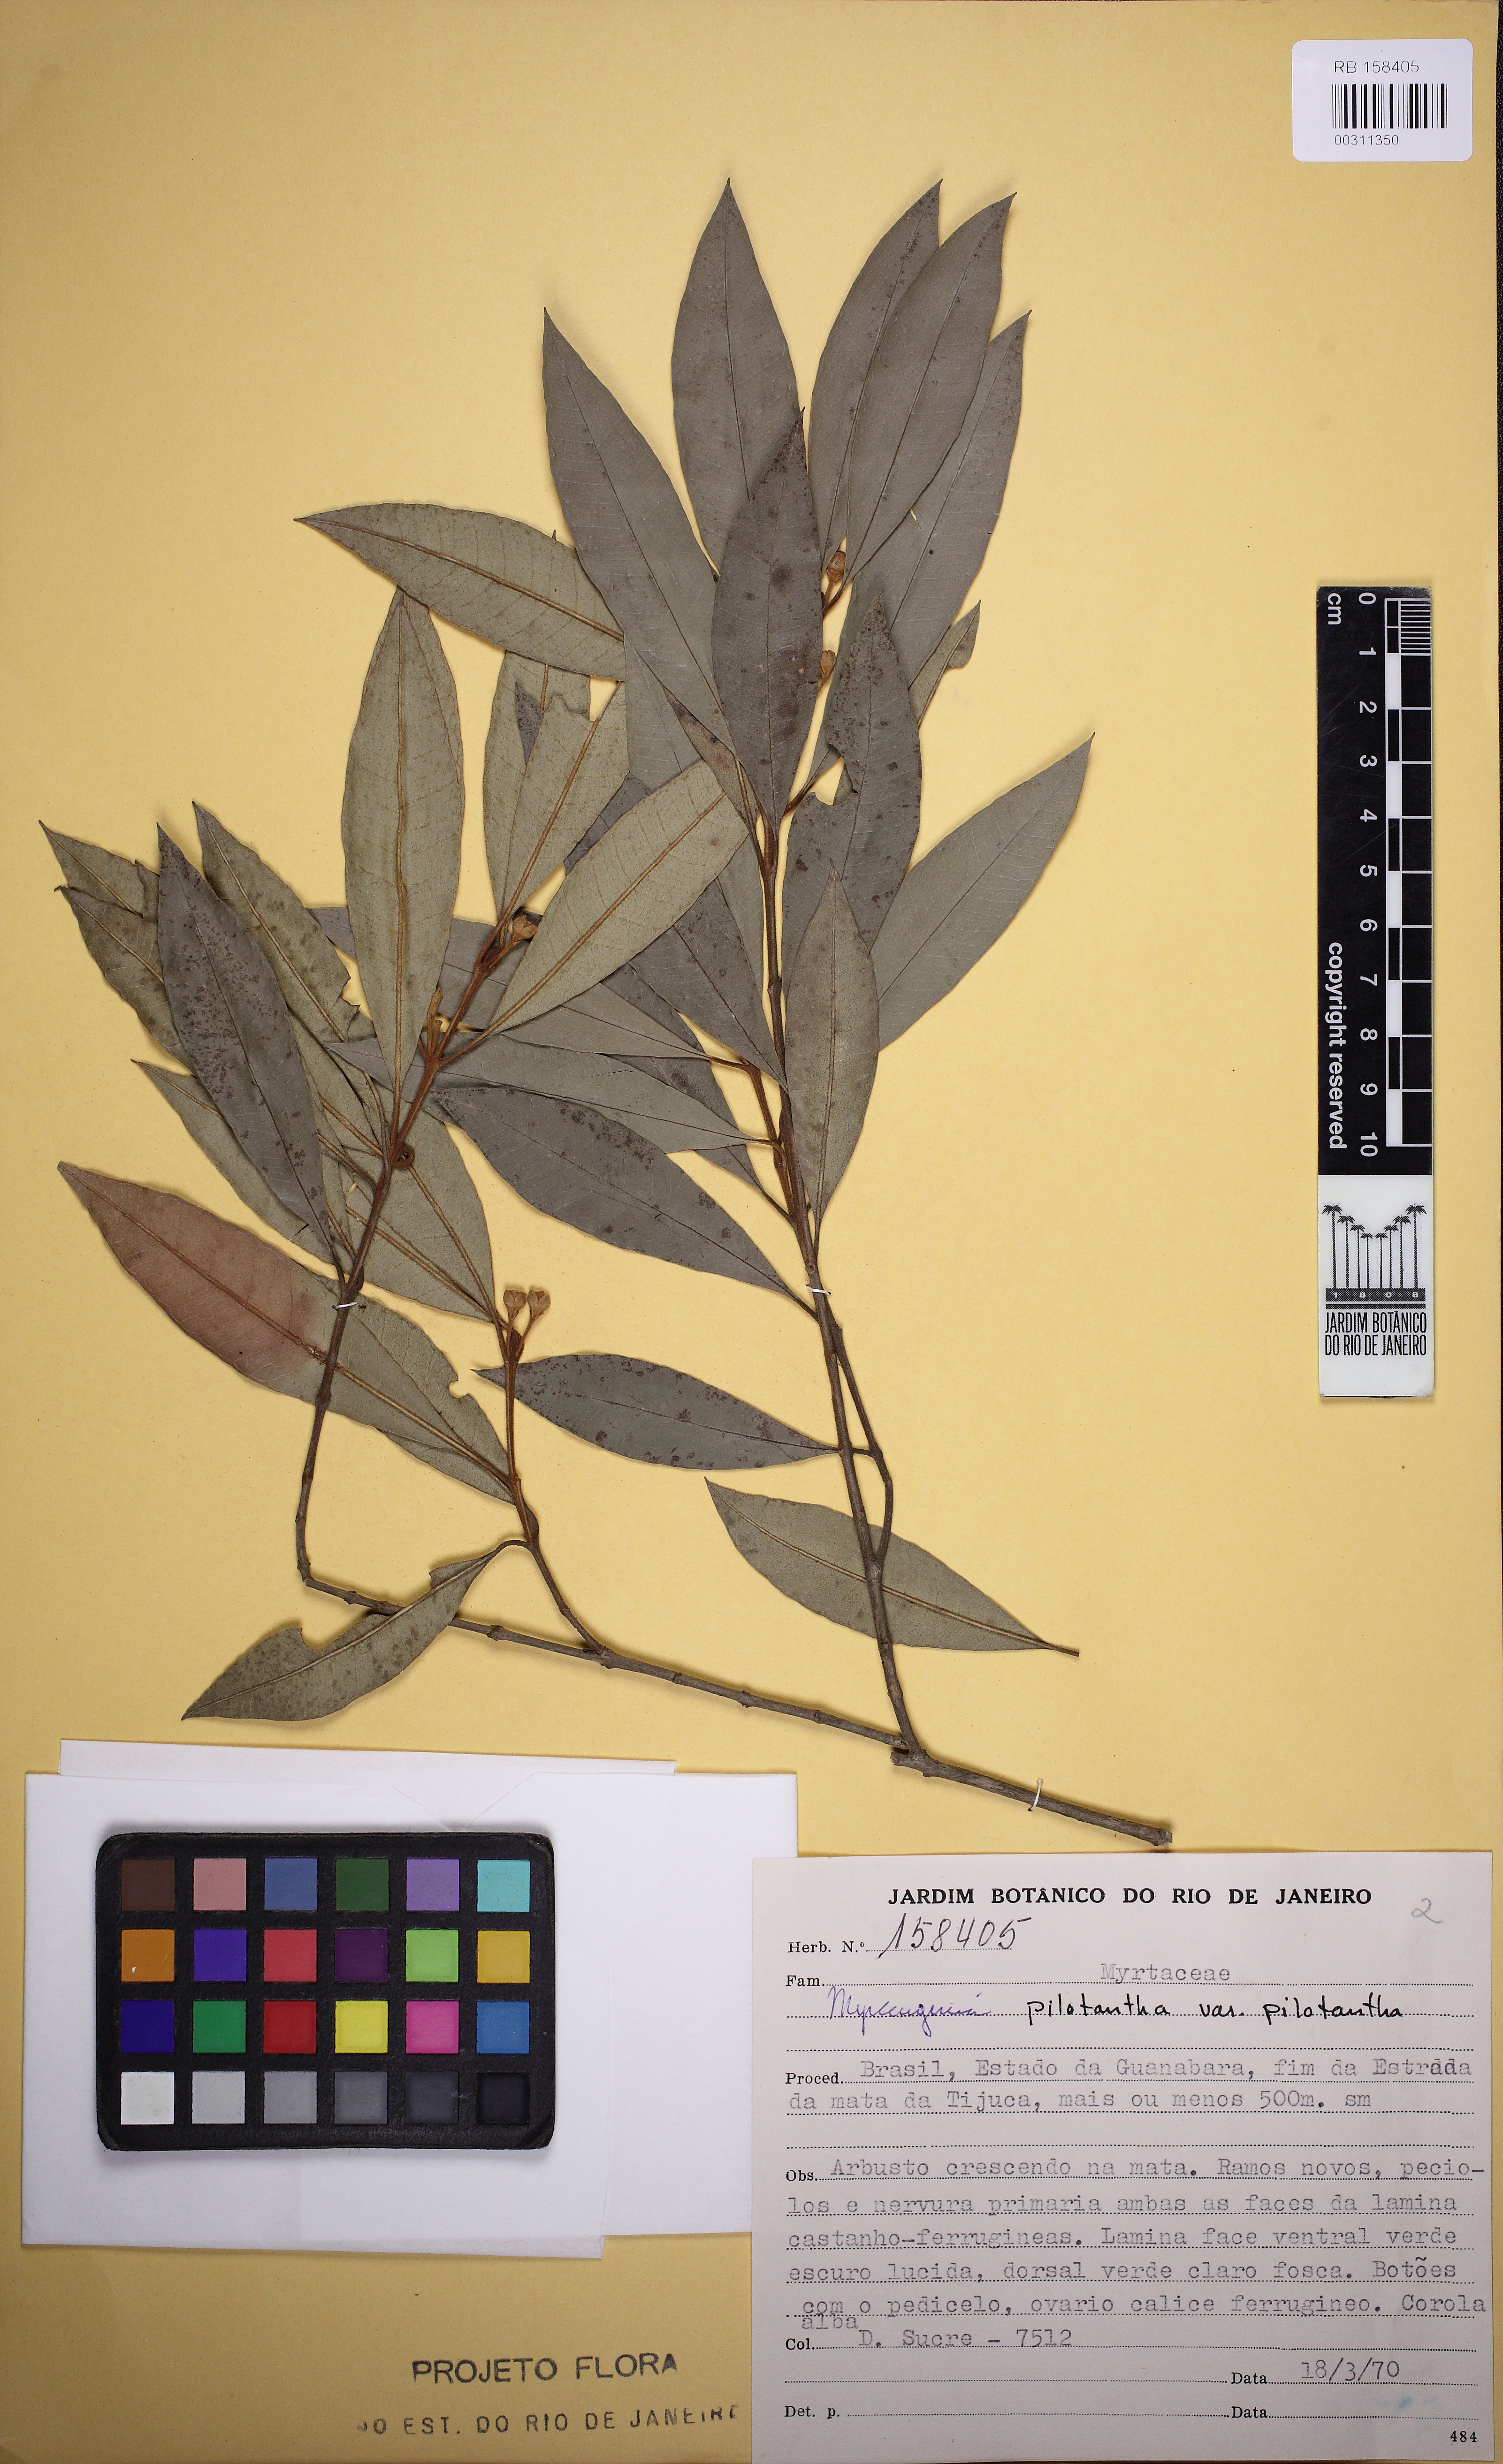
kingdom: Plantae
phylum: Tracheophyta
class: Magnoliopsida
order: Myrtales
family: Myrtaceae
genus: Myrceugenia
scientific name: Myrceugenia pilotantha
